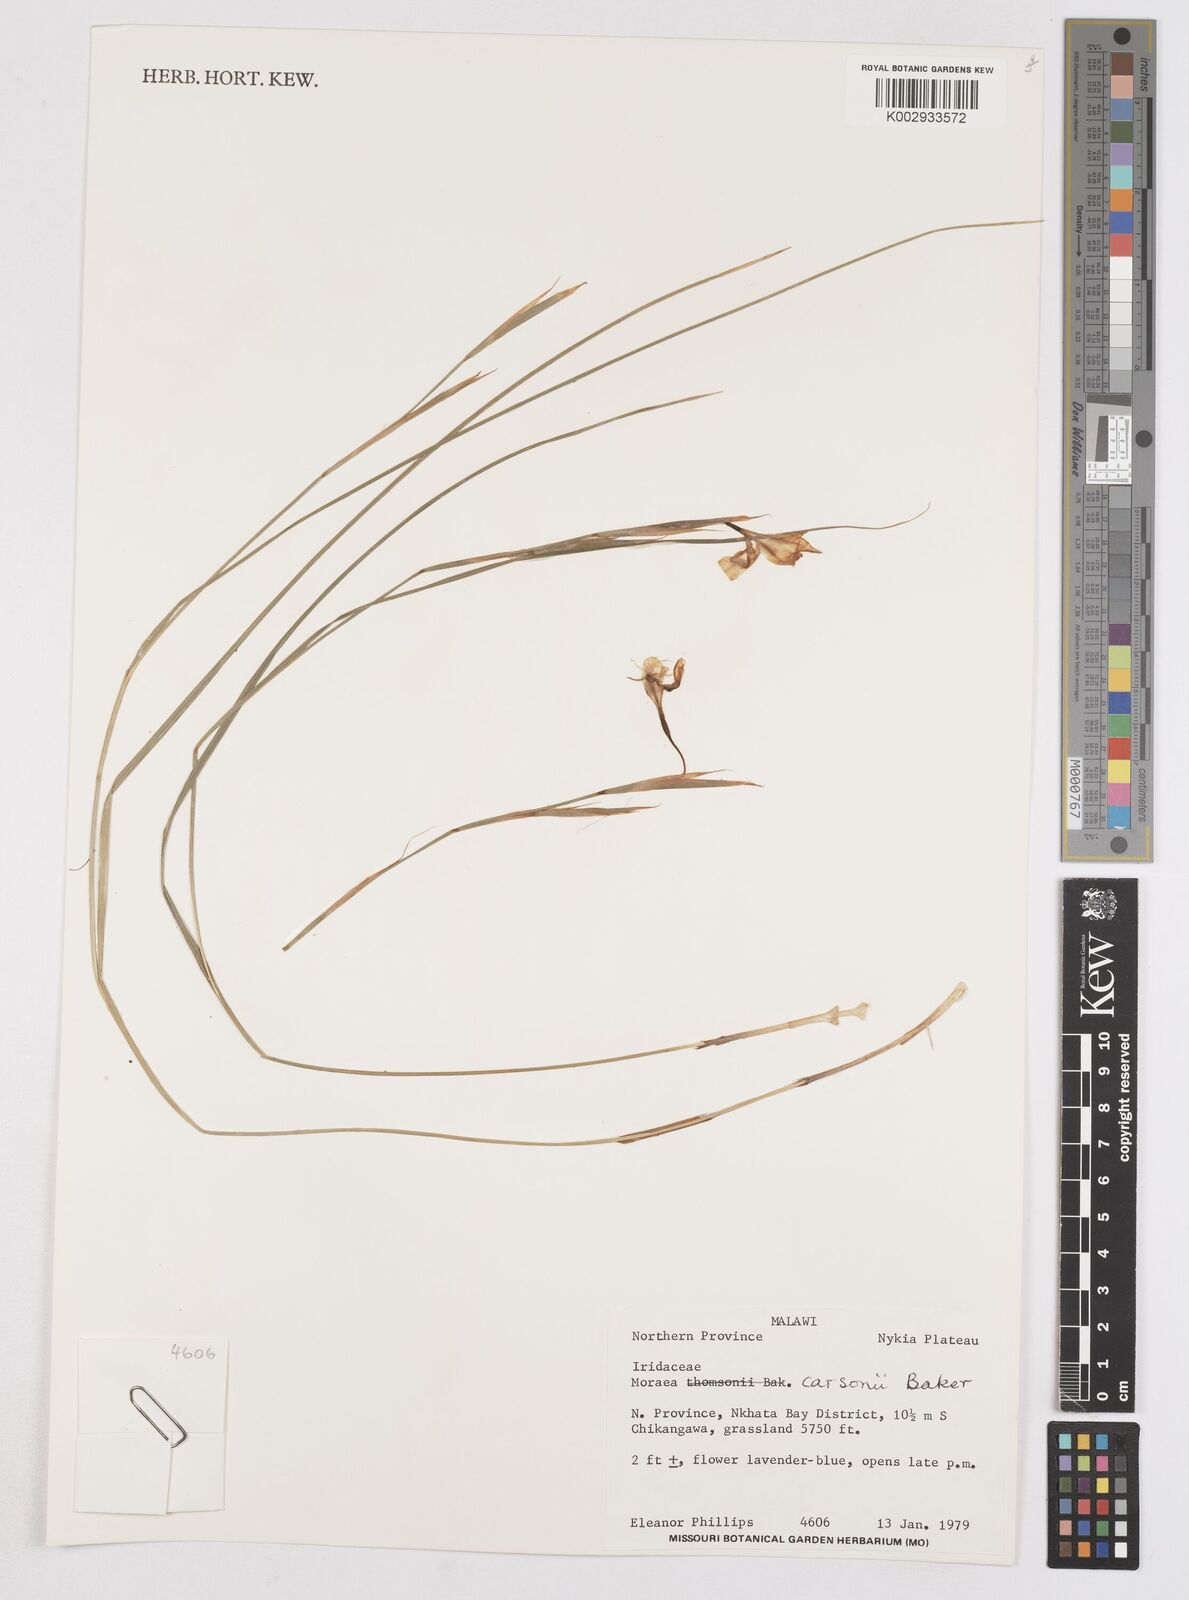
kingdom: Plantae
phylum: Tracheophyta
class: Liliopsida
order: Asparagales
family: Iridaceae
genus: Moraea
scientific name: Moraea carsonii
